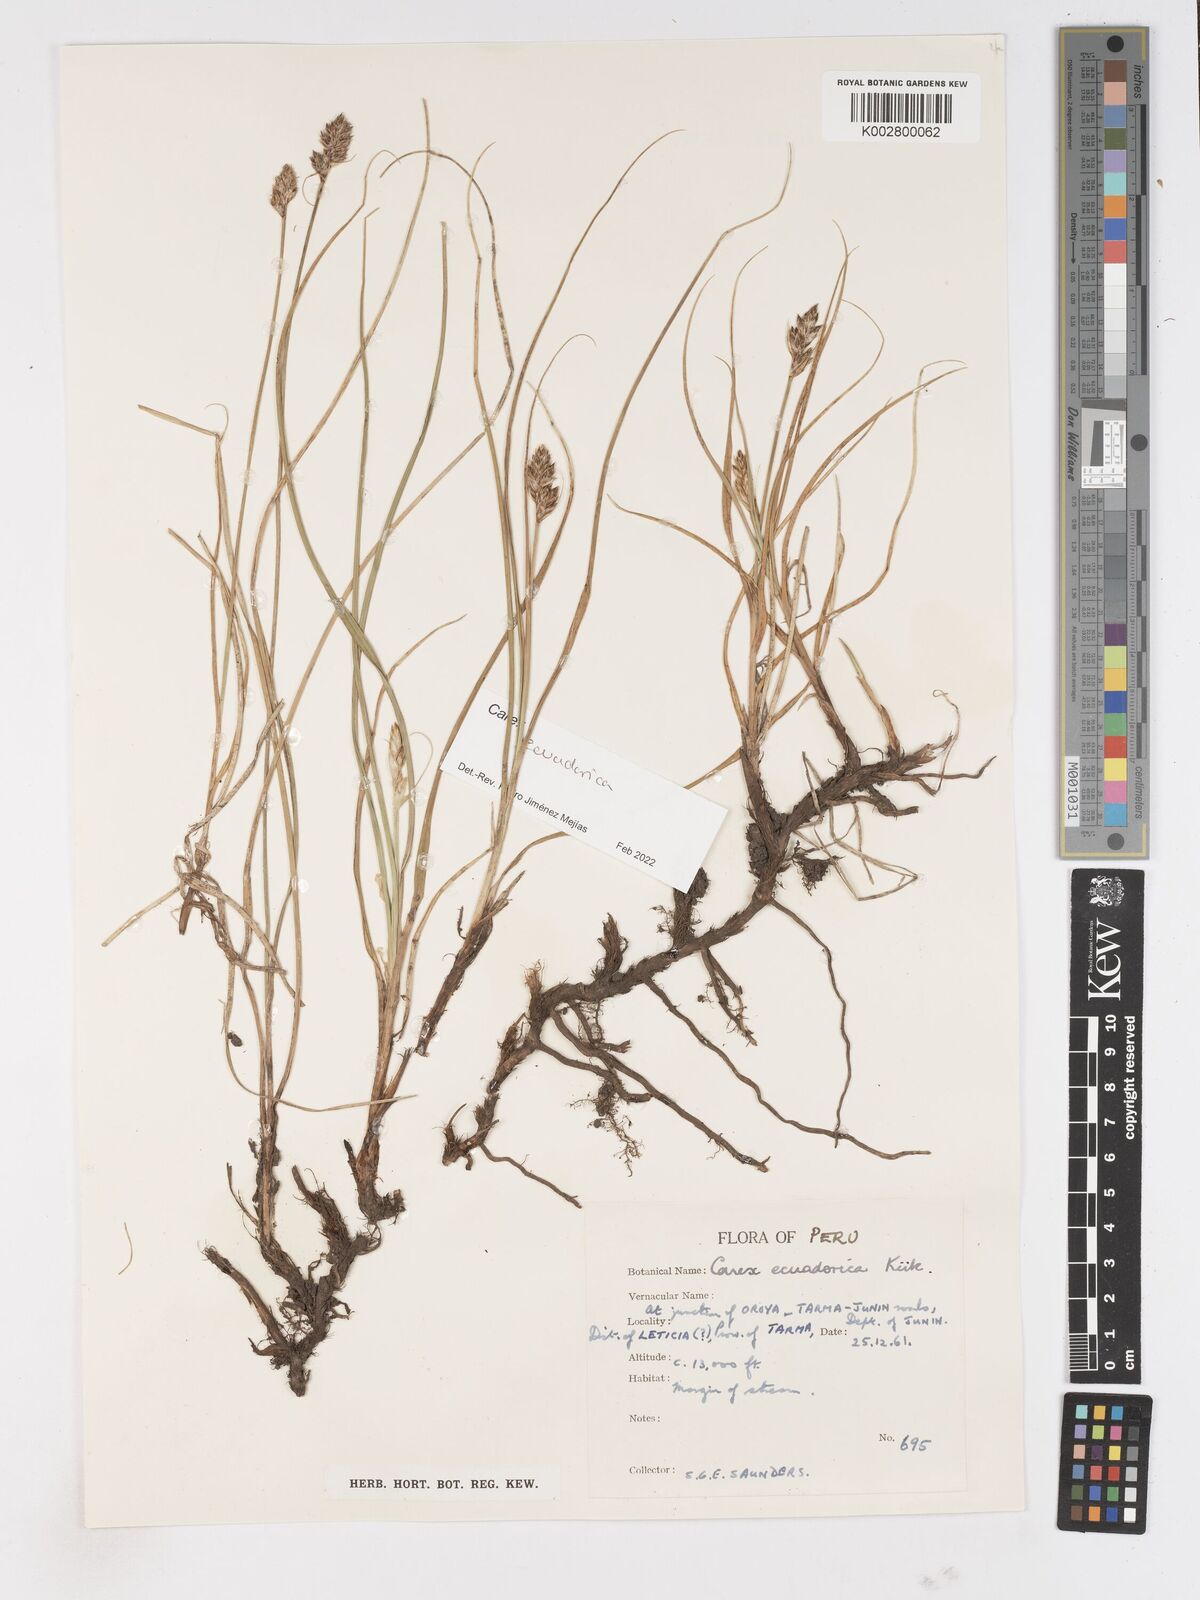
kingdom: Plantae
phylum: Tracheophyta
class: Liliopsida
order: Poales
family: Cyperaceae
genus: Carex
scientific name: Carex ecuadorica
